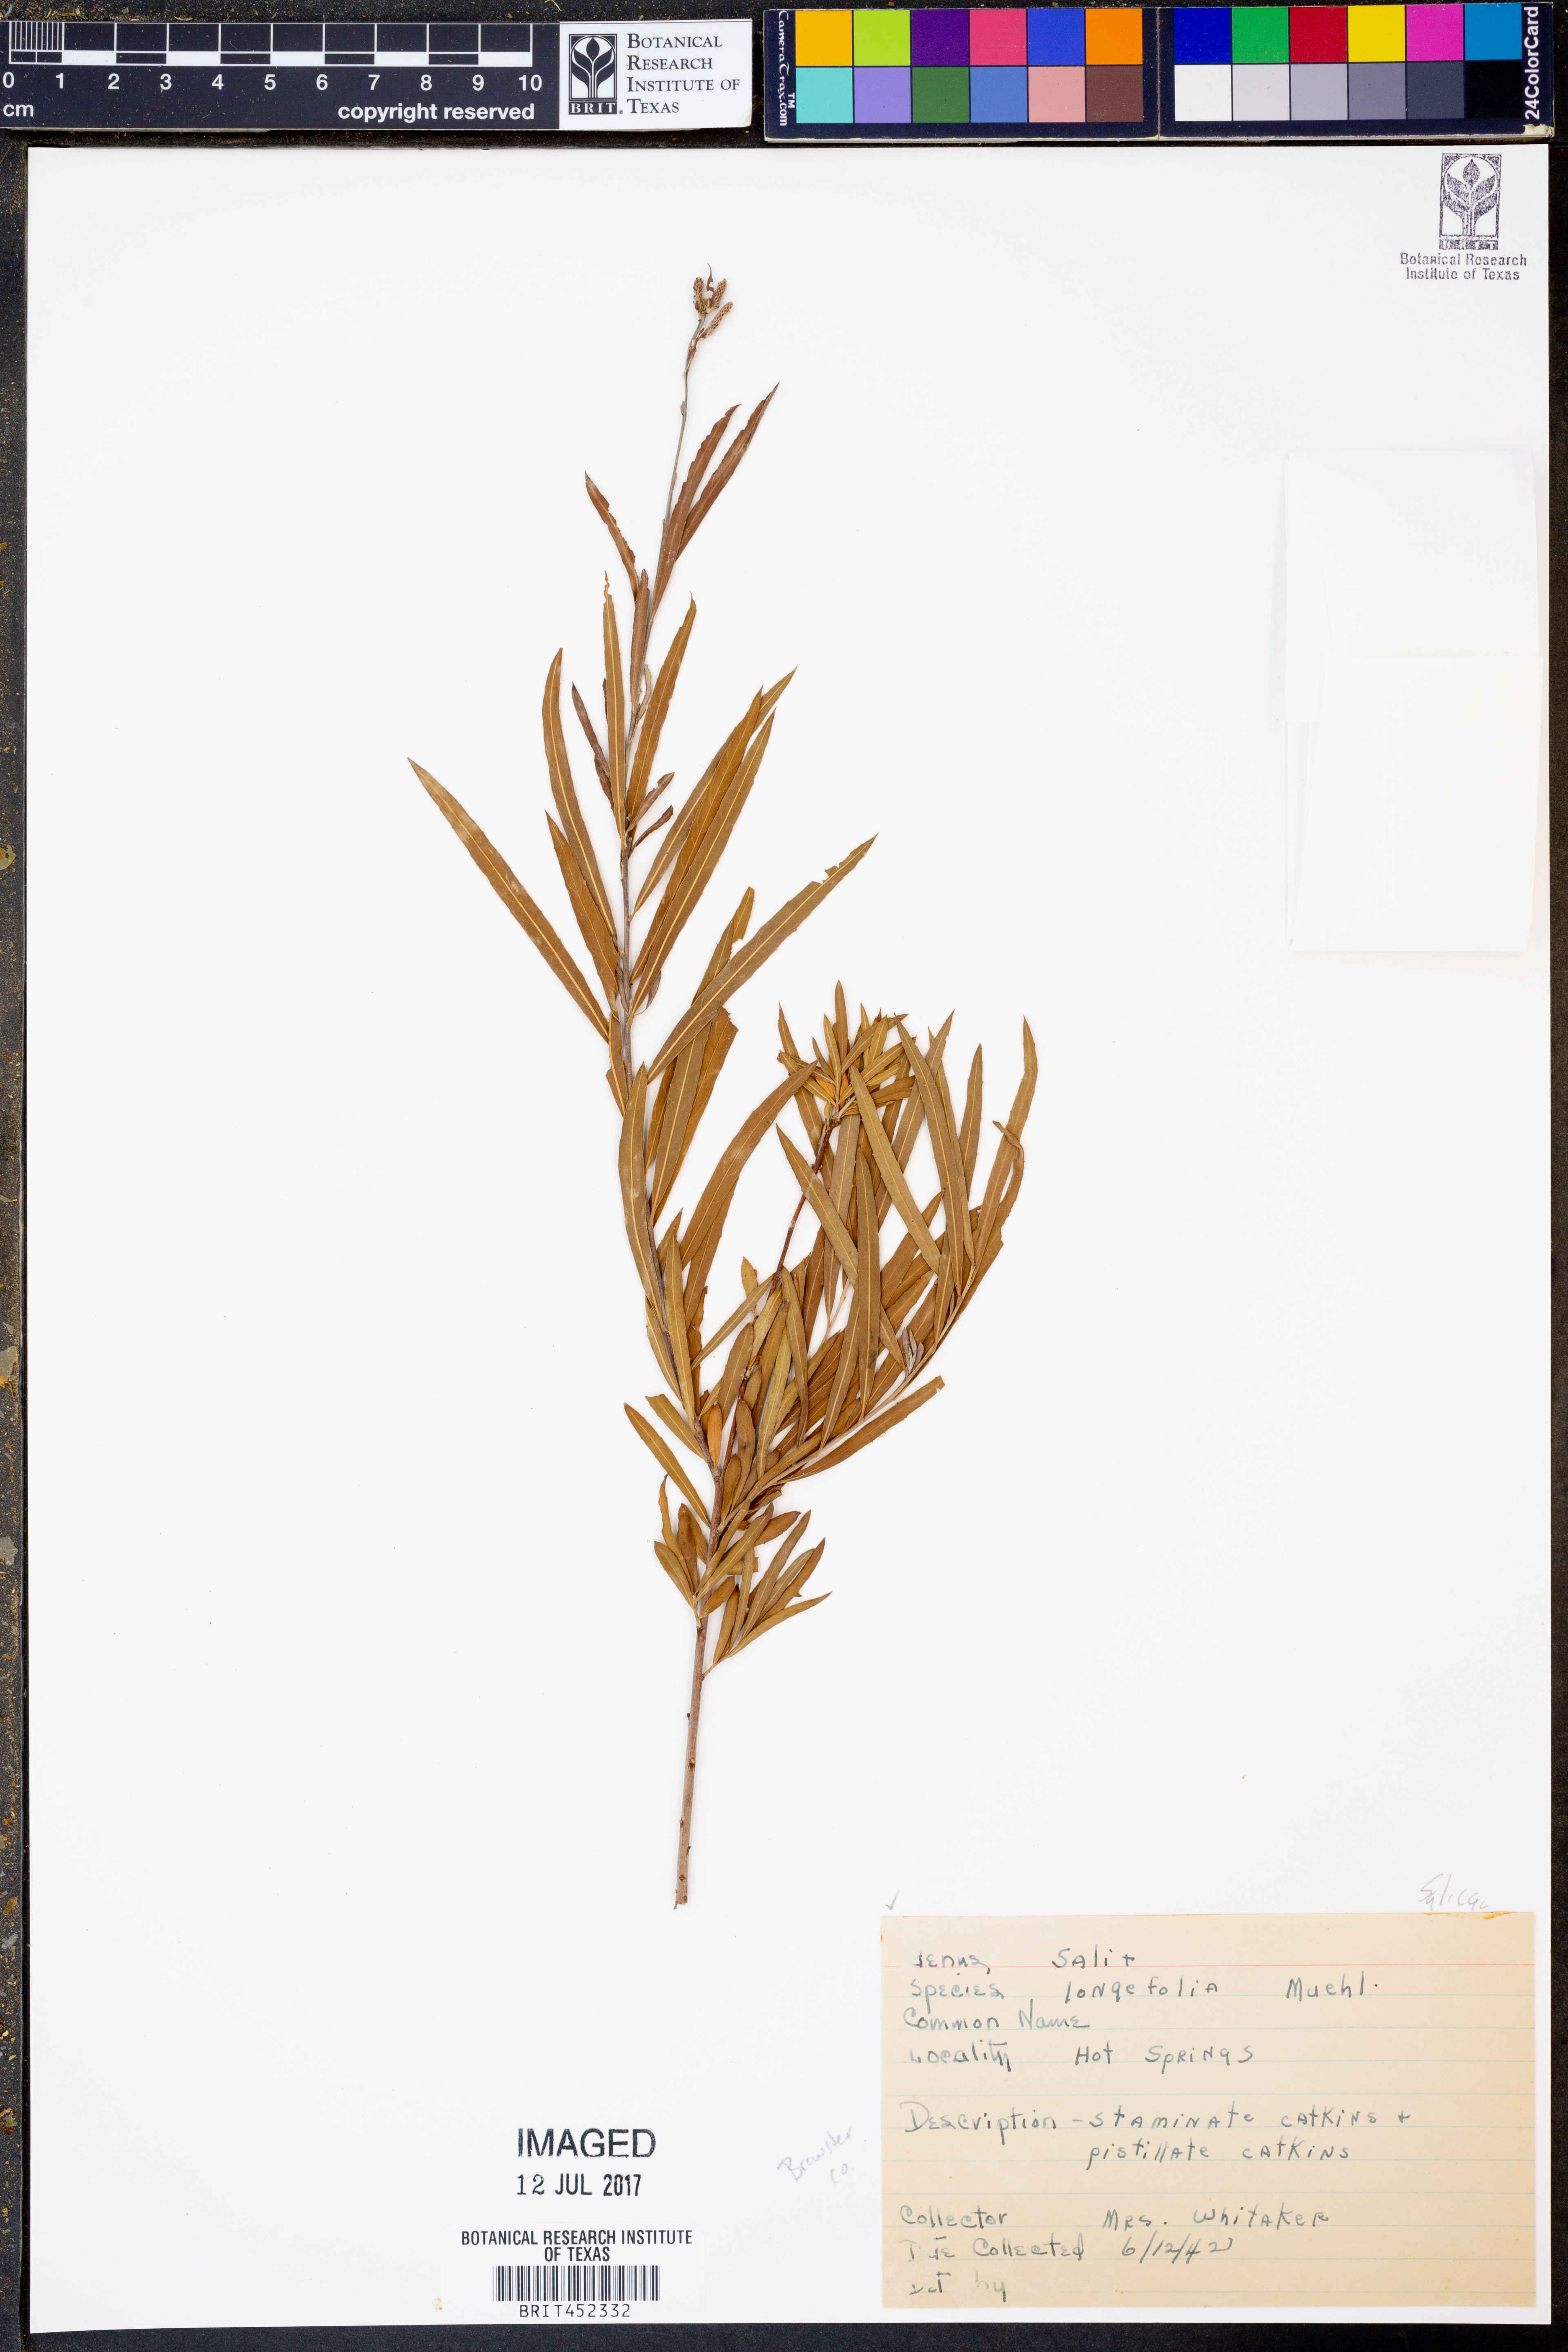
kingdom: Plantae
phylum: Tracheophyta
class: Magnoliopsida
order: Malpighiales
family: Salicaceae
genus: Salix
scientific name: Salix interior
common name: Sandbar willow
